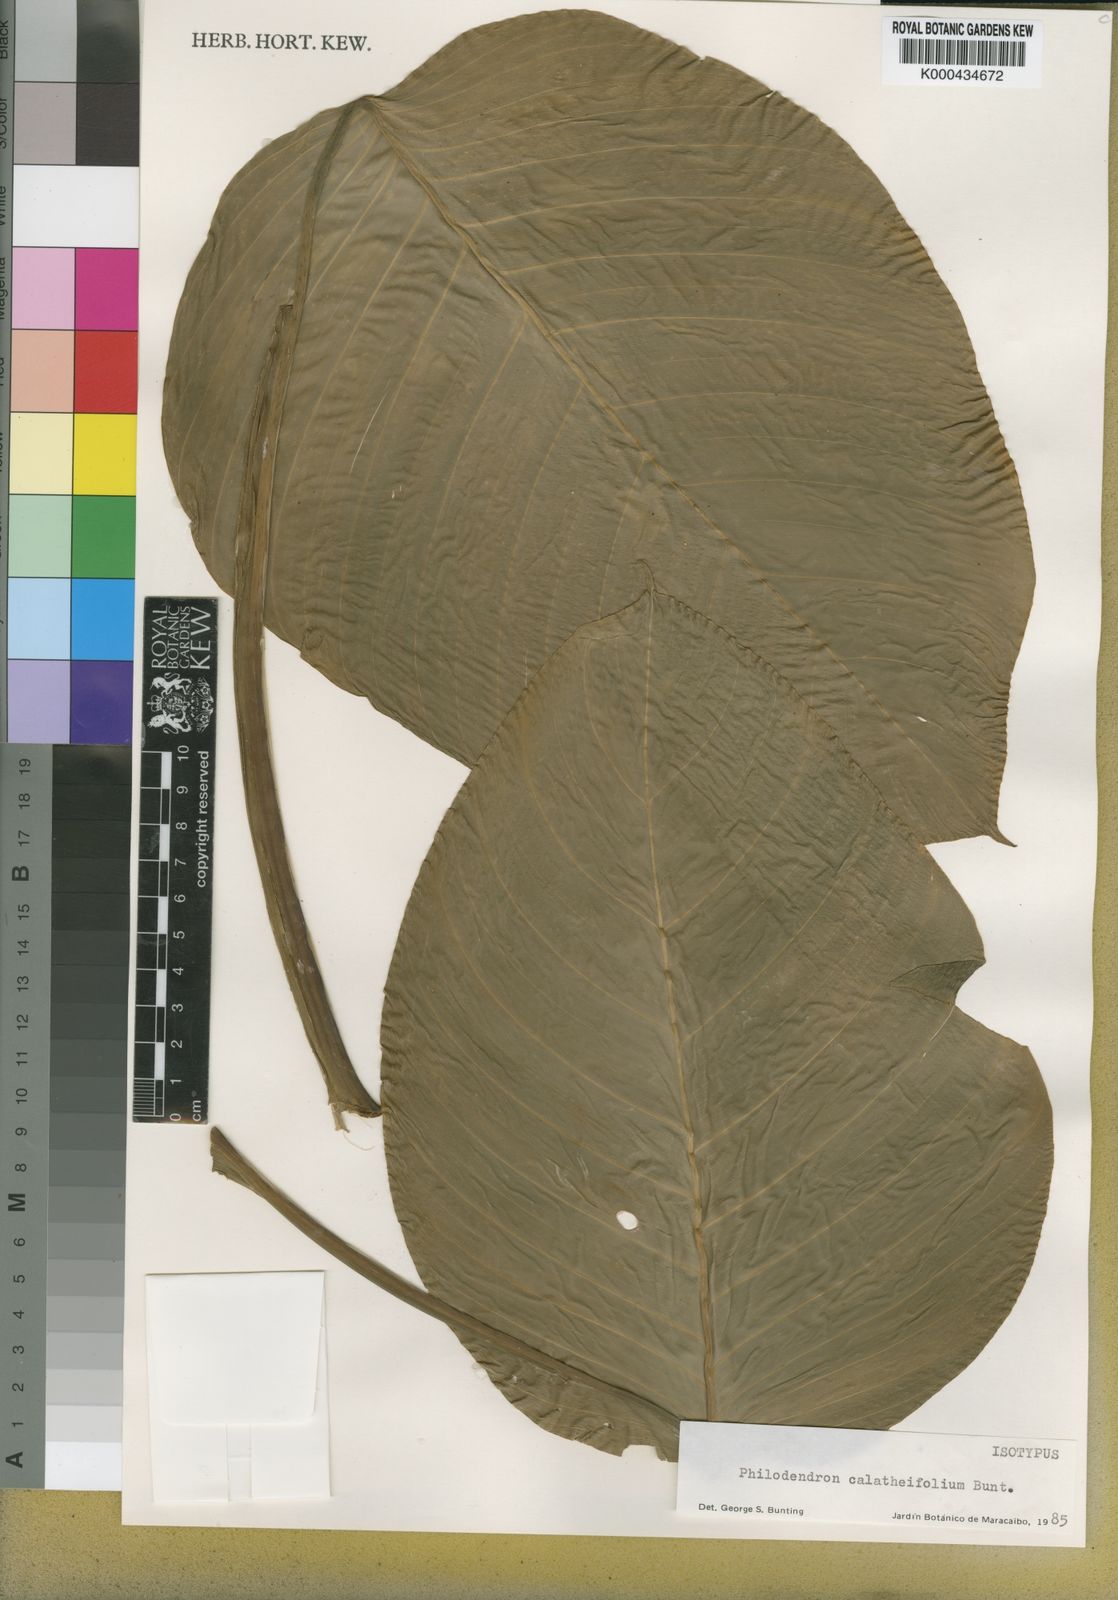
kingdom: Plantae
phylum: Tracheophyta
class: Liliopsida
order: Alismatales
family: Araceae
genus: Philodendron
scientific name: Philodendron calatheifolium
